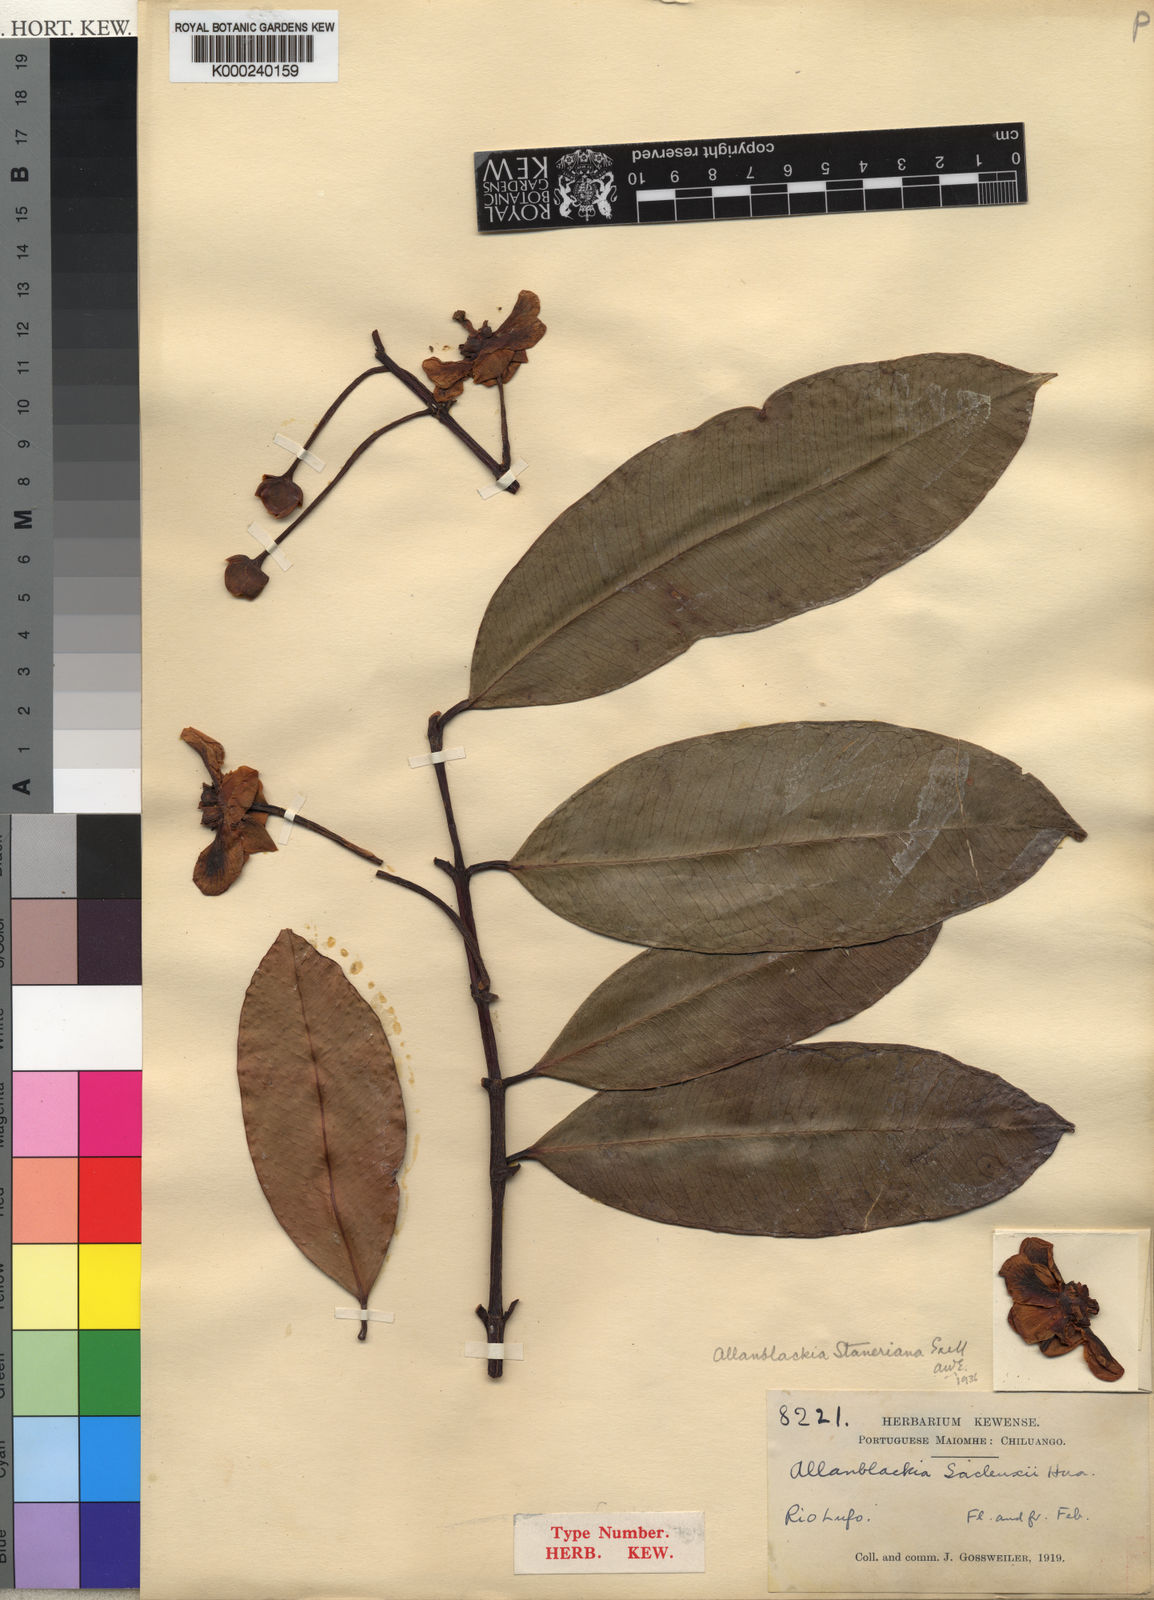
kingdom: Plantae
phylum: Tracheophyta
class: Magnoliopsida
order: Malpighiales
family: Clusiaceae
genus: Allanblackia
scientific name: Allanblackia staneriana
